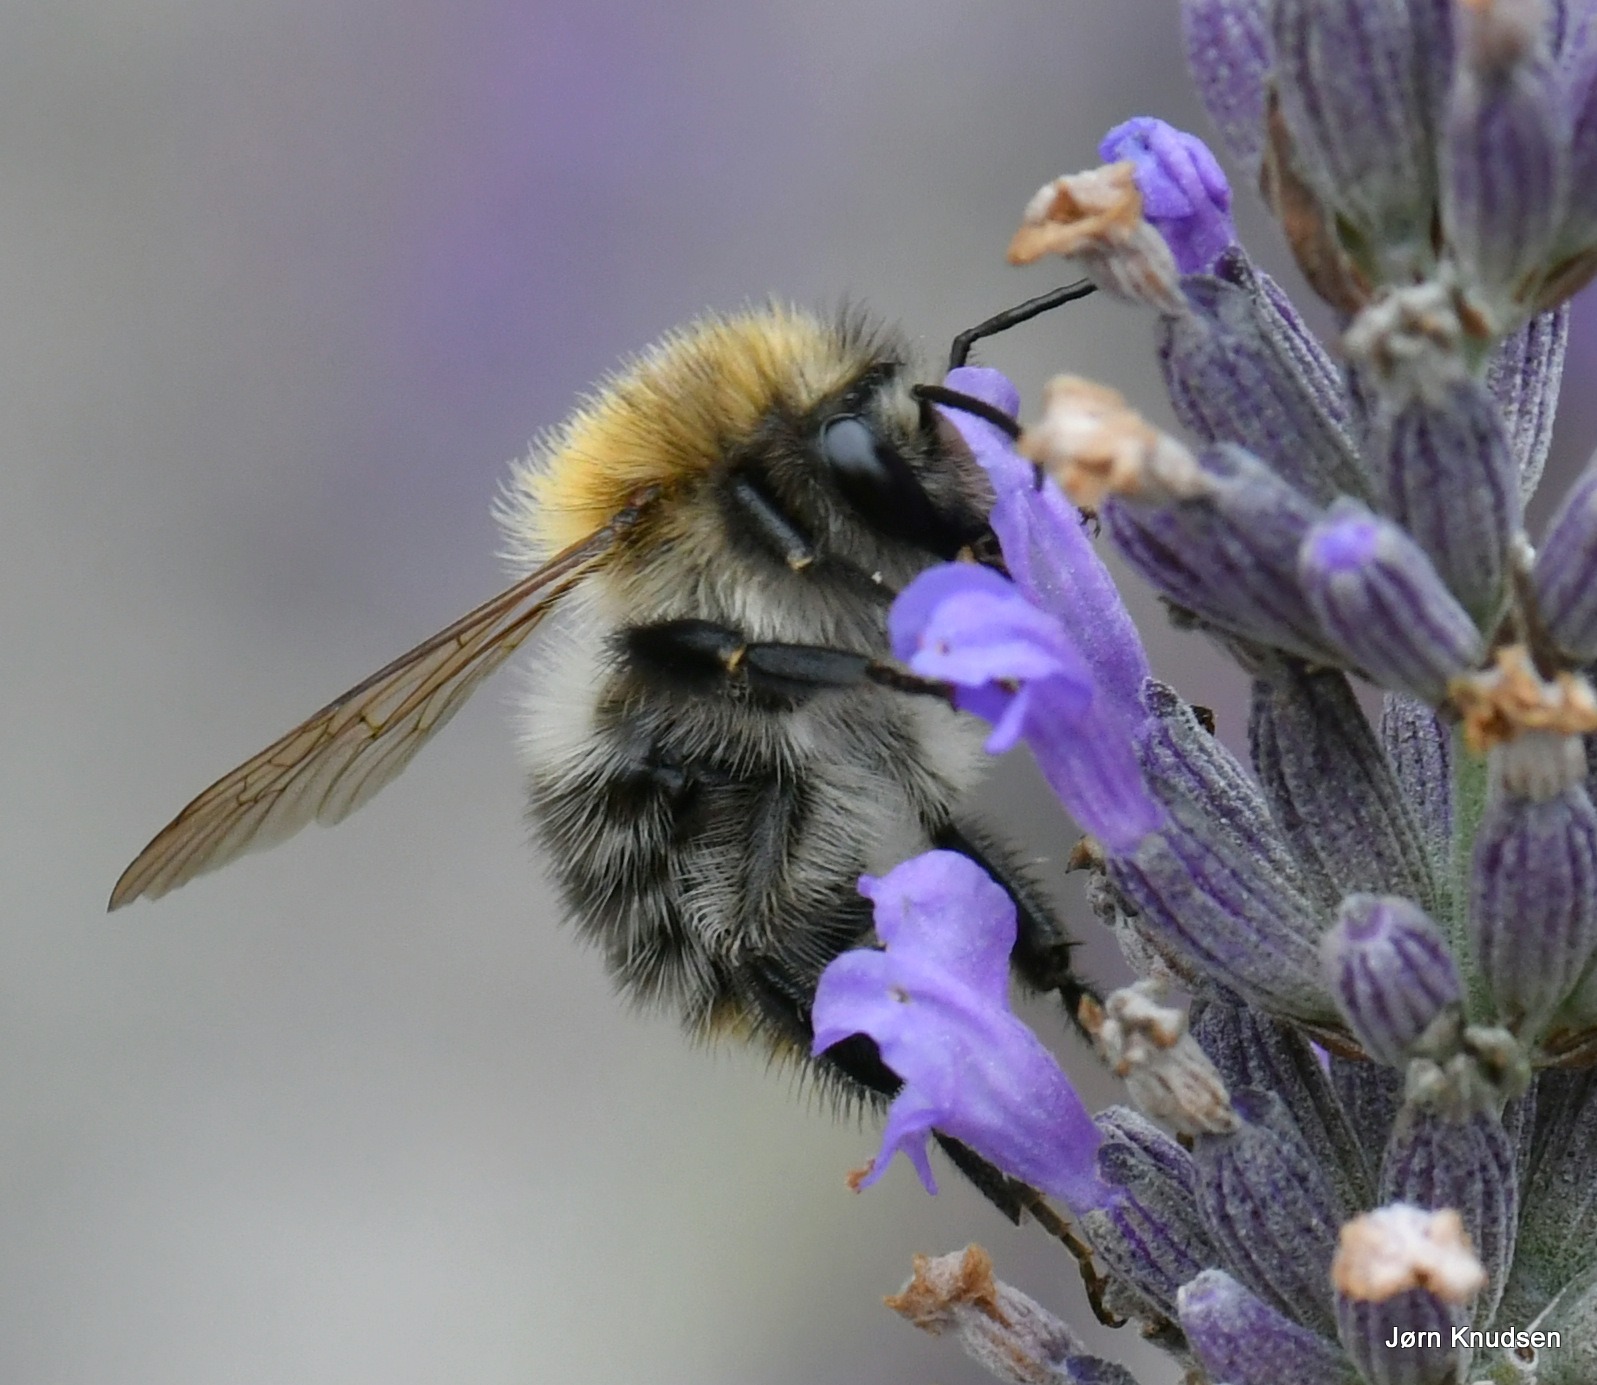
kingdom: Animalia
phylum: Arthropoda
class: Insecta
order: Hymenoptera
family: Apidae
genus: Bombus
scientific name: Bombus pascuorum
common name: Agerhumle
